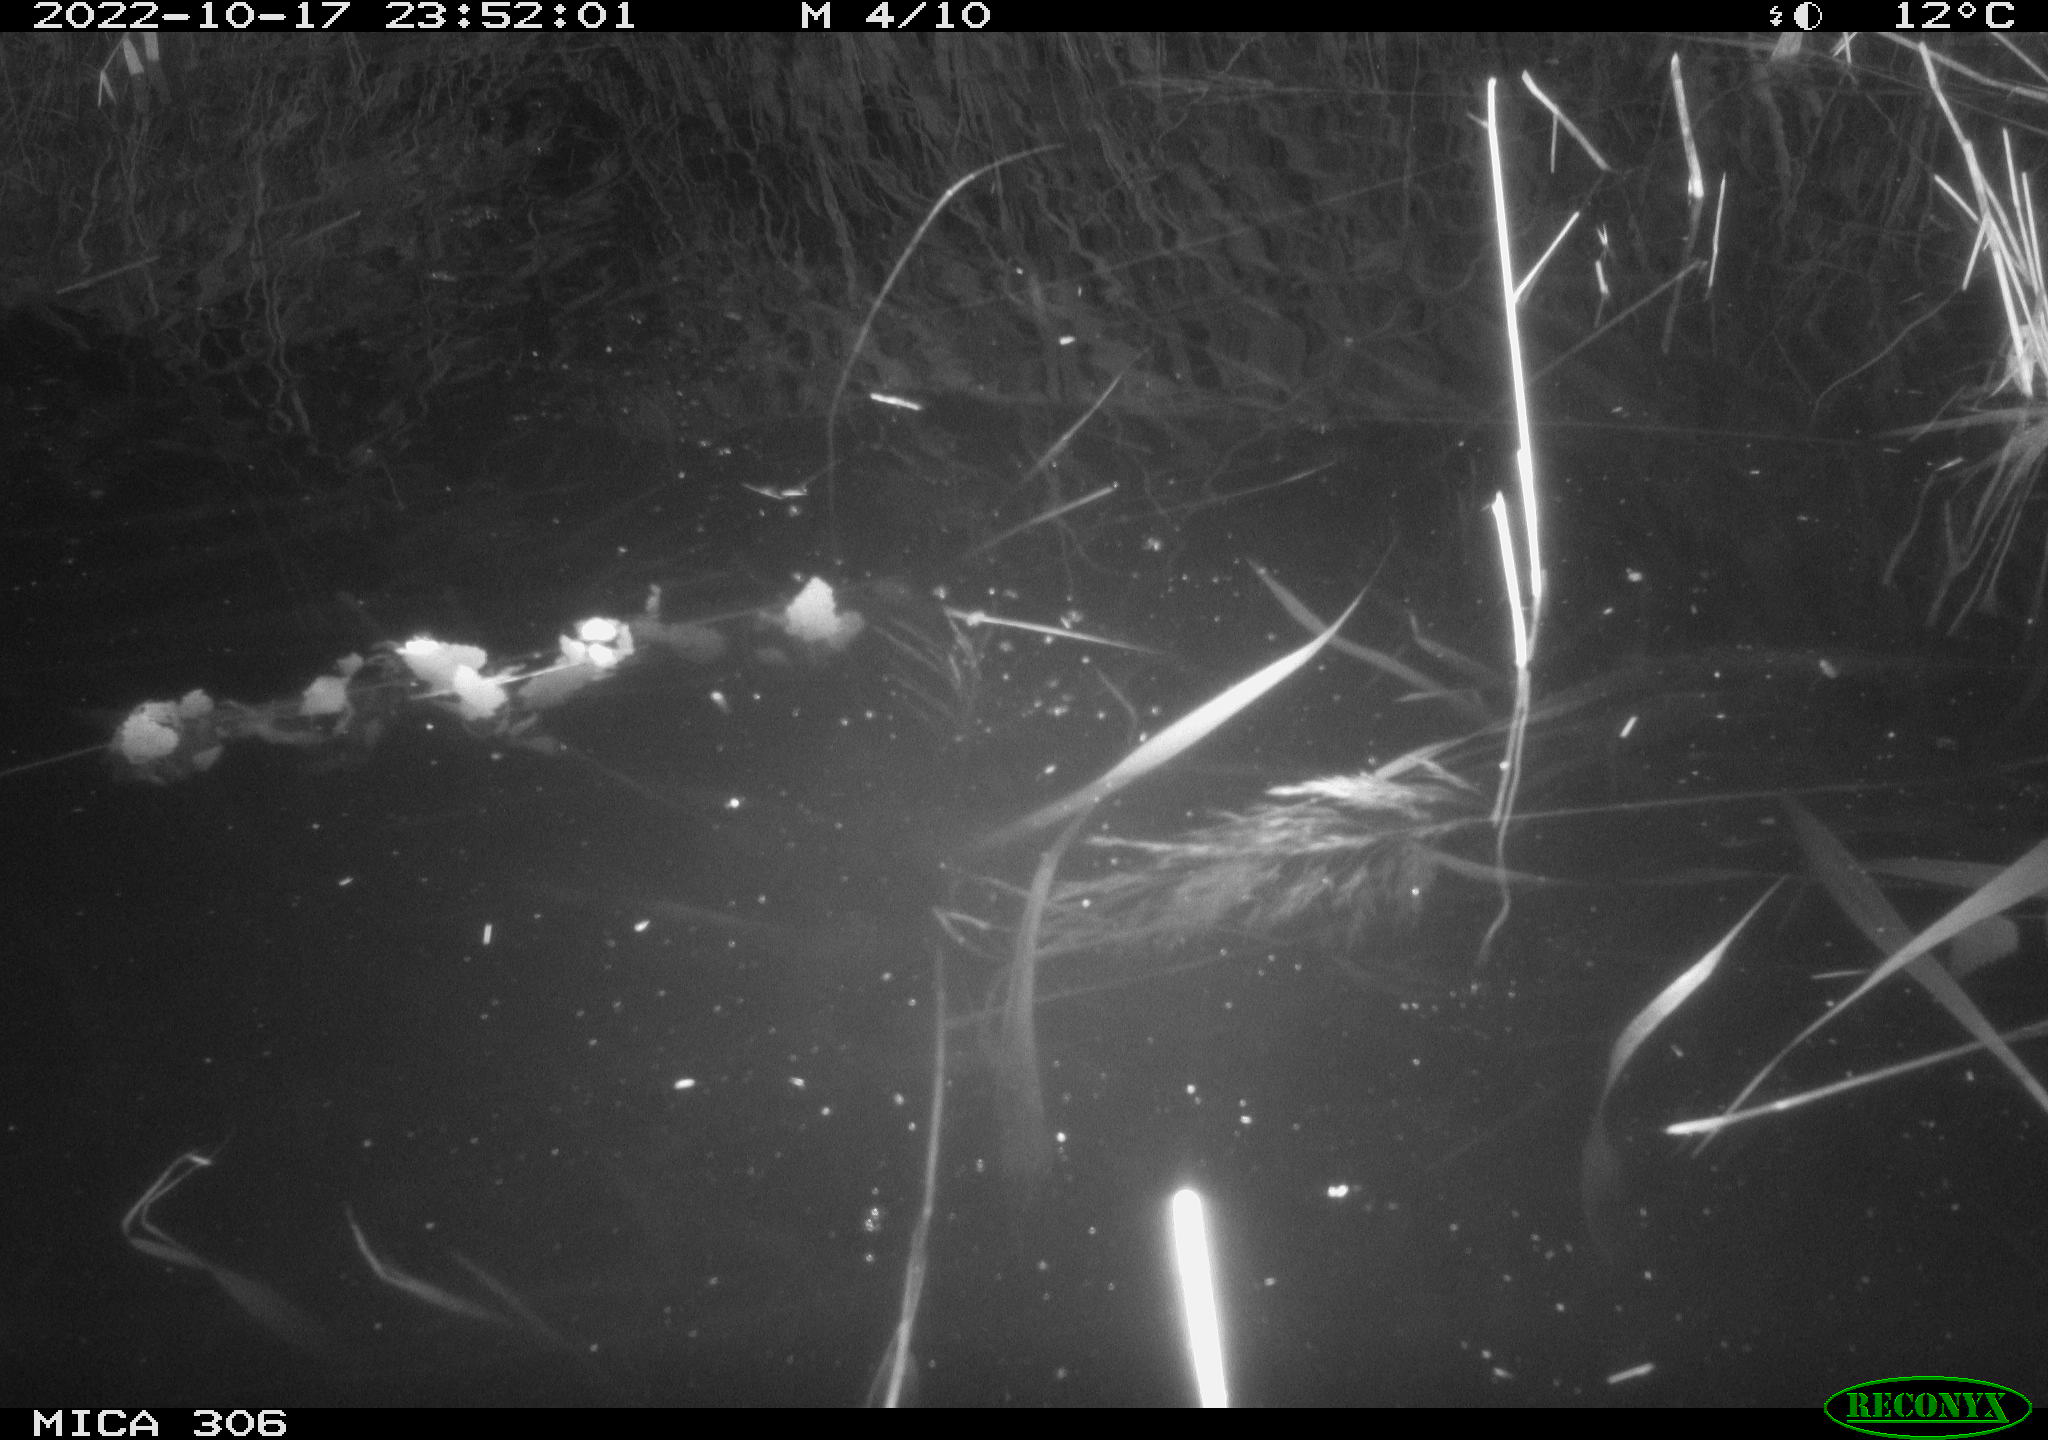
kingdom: Animalia
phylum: Chordata
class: Mammalia
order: Rodentia
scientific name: Rodentia
